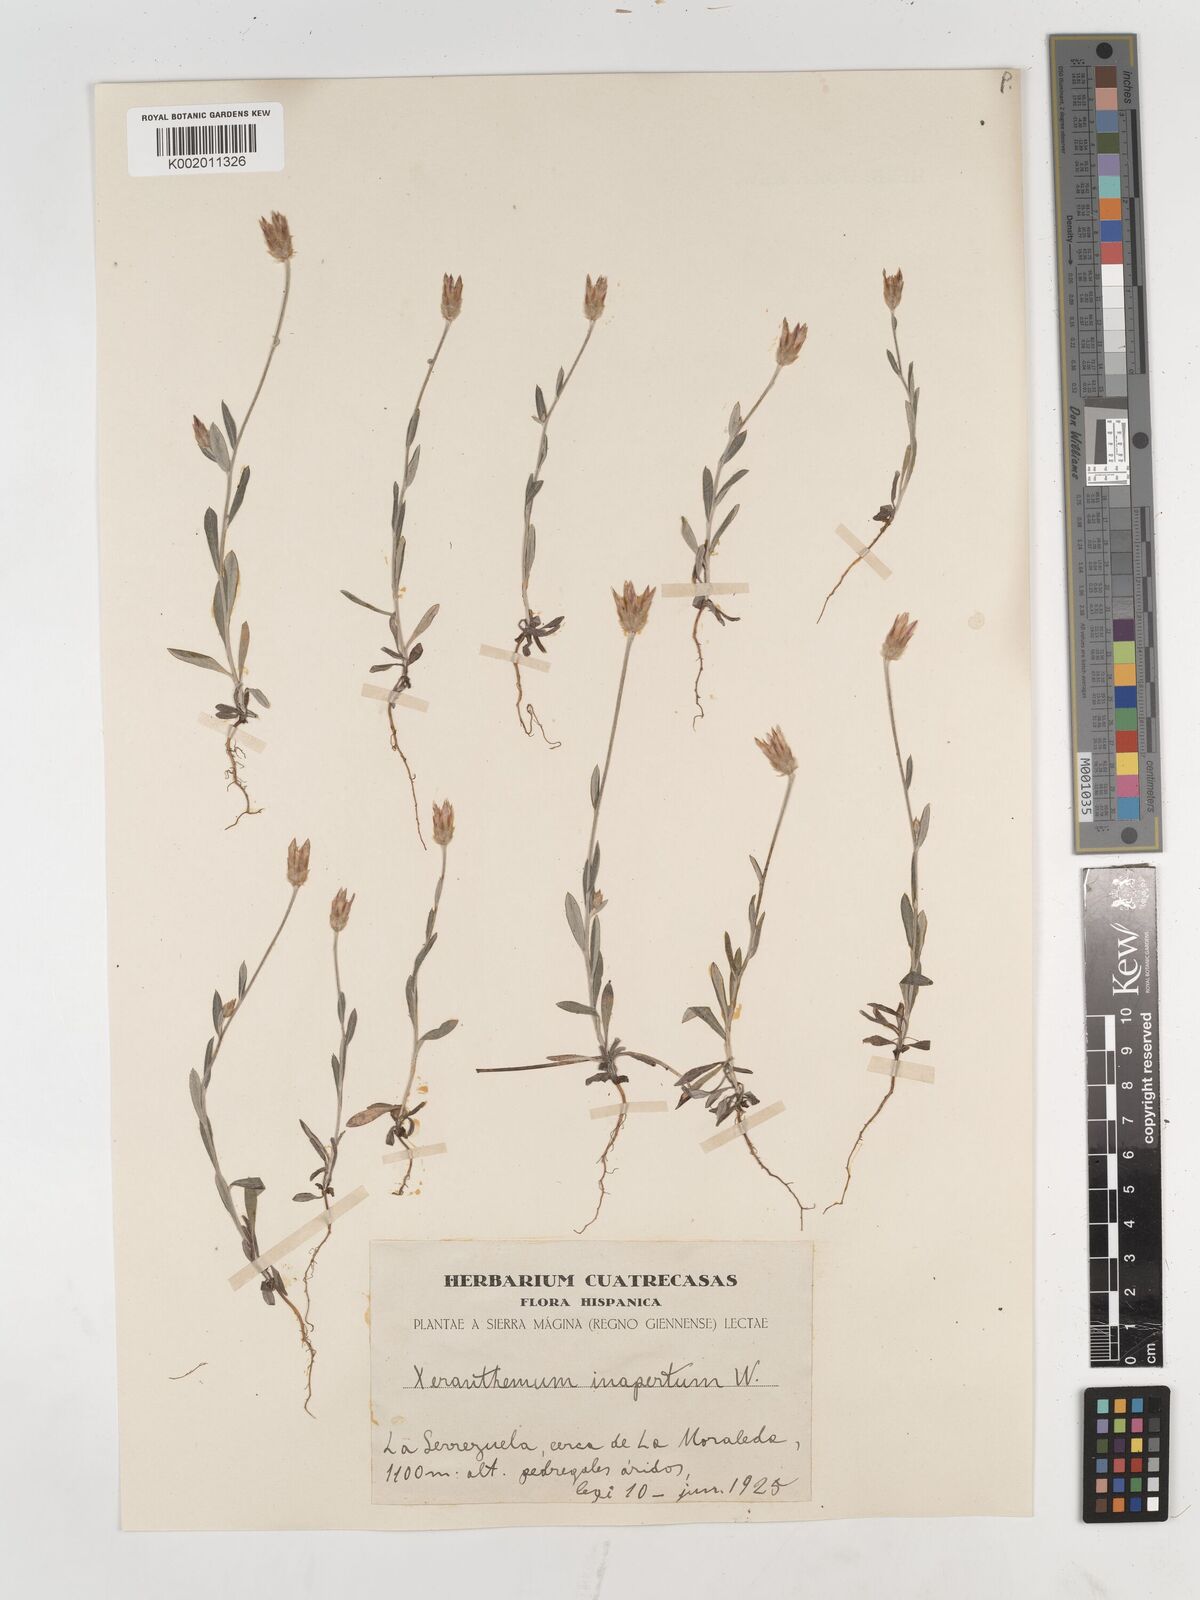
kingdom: Plantae
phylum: Tracheophyta
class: Magnoliopsida
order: Asterales
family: Asteraceae
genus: Xeranthemum
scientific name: Xeranthemum inapertum
